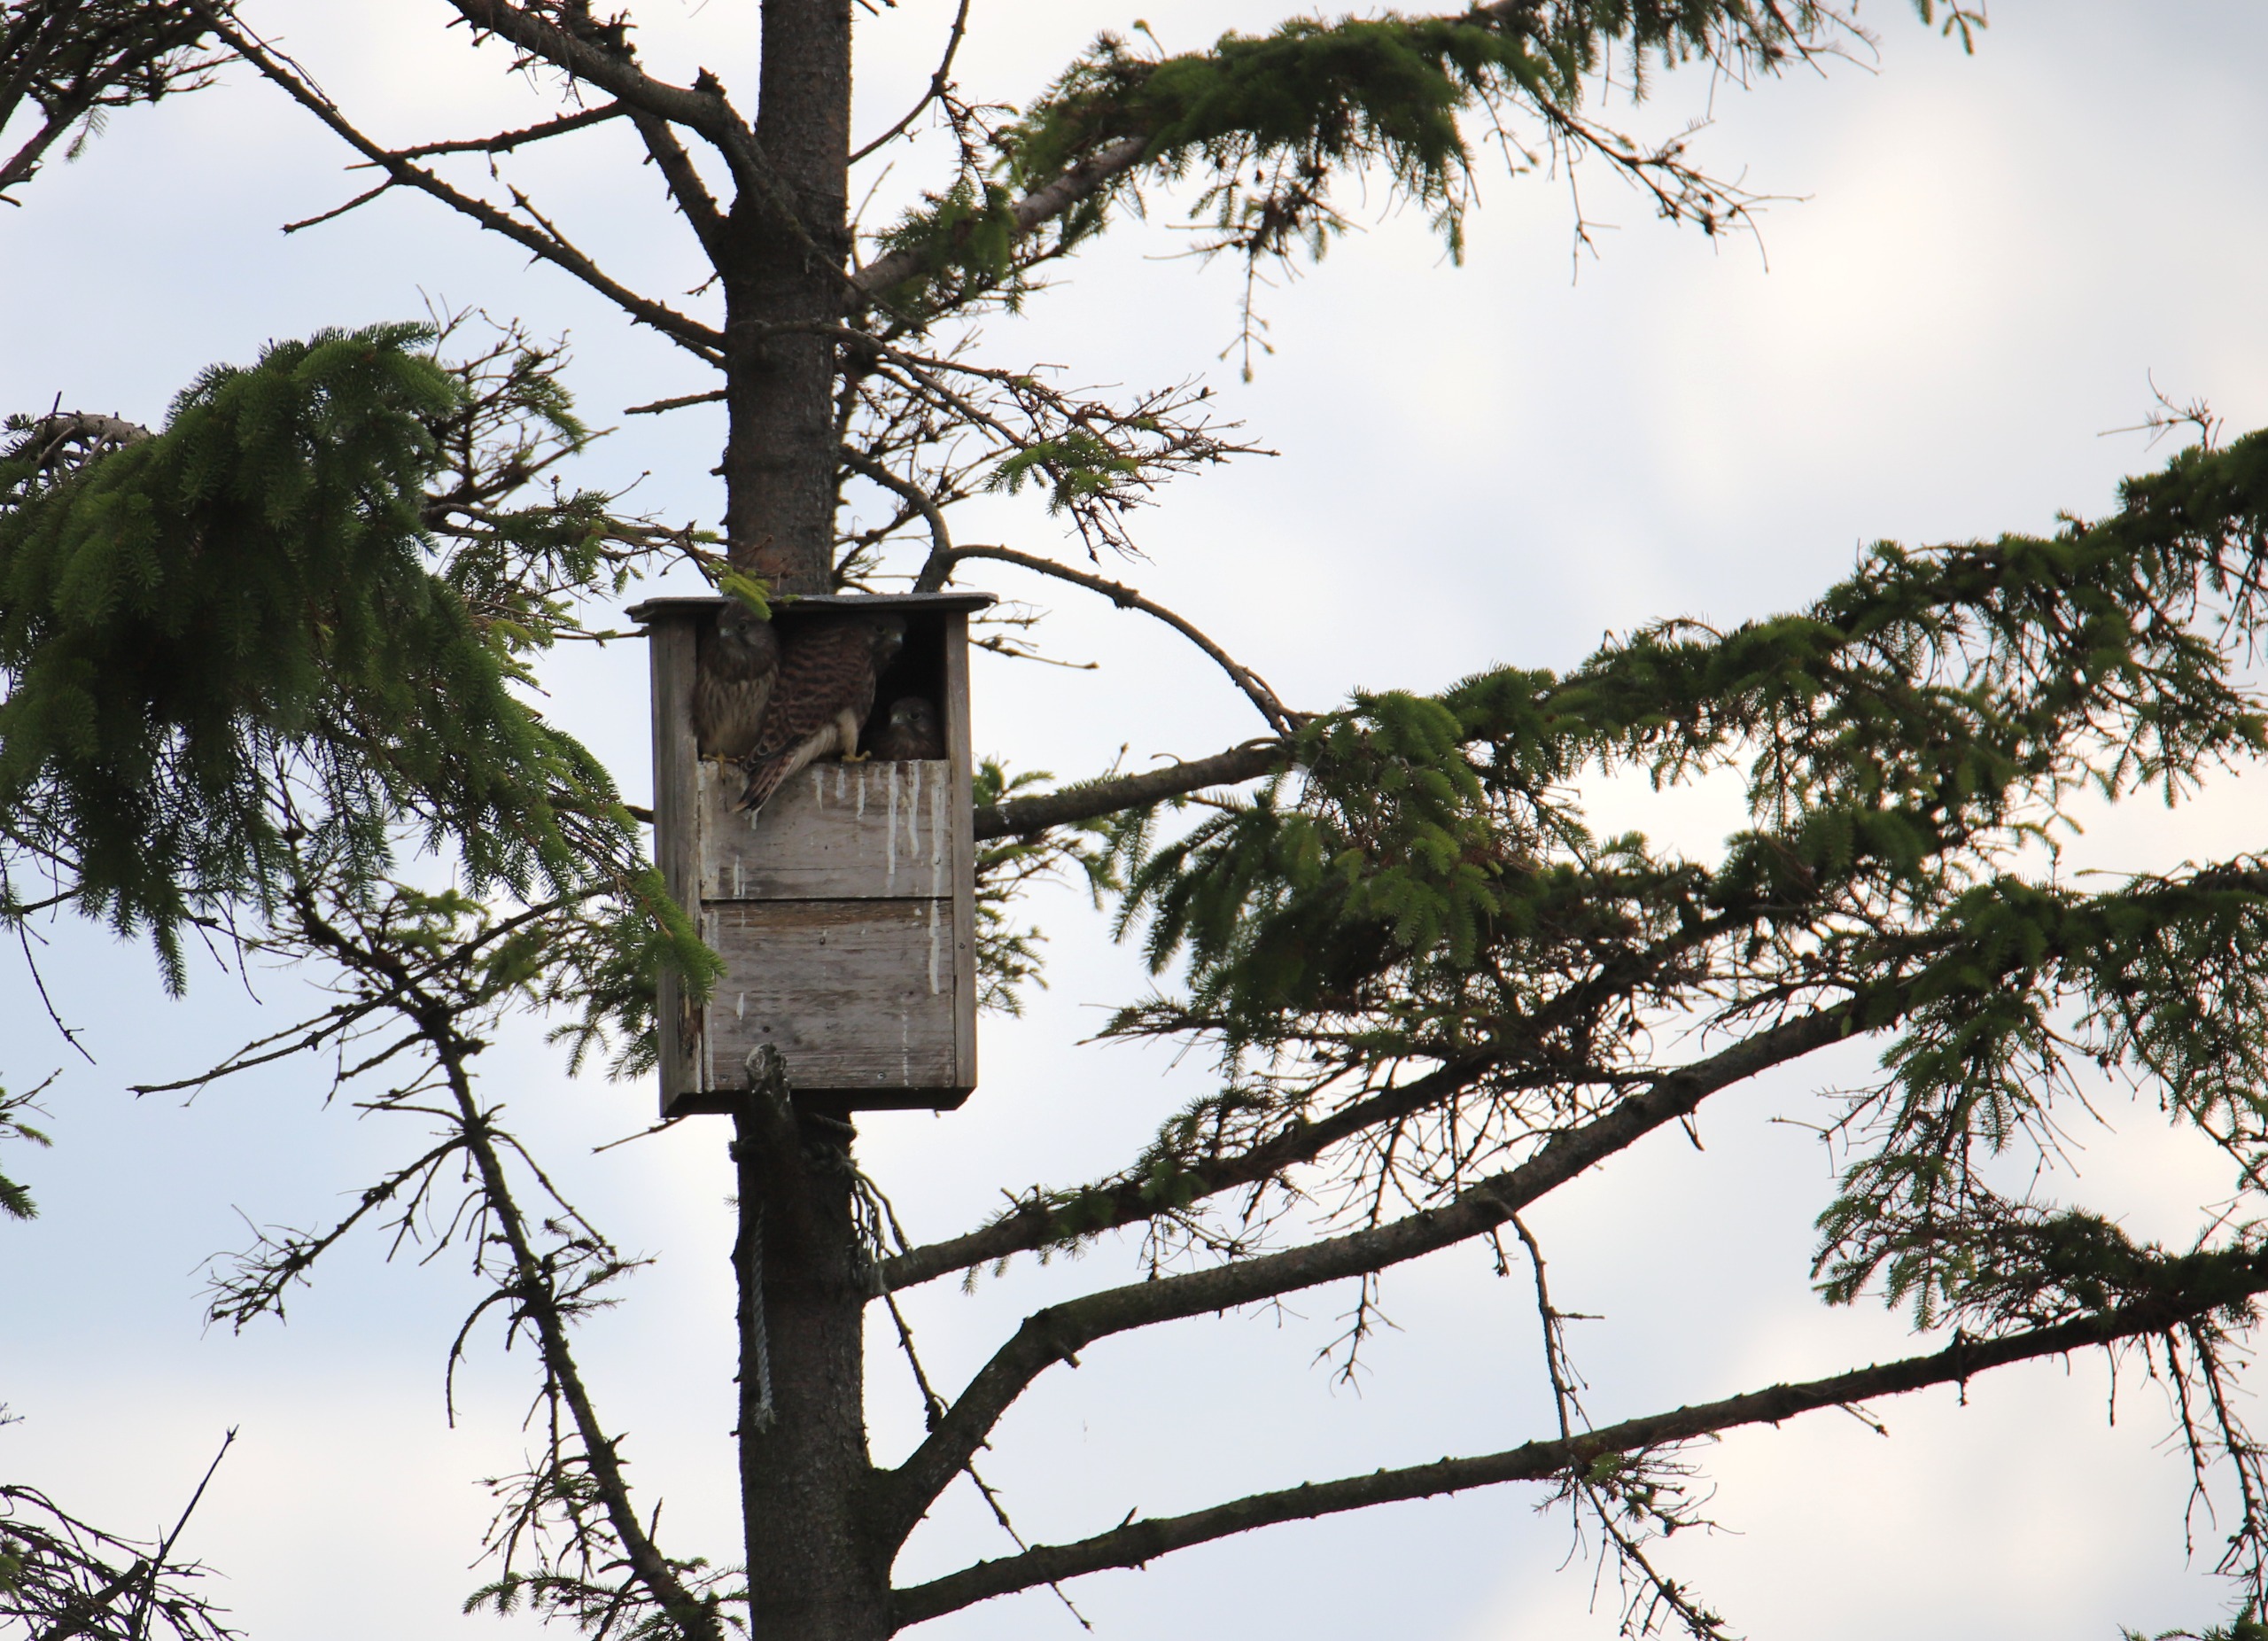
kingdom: Animalia
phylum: Chordata
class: Aves
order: Falconiformes
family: Falconidae
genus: Falco
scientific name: Falco tinnunculus
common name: Tårnfalk
